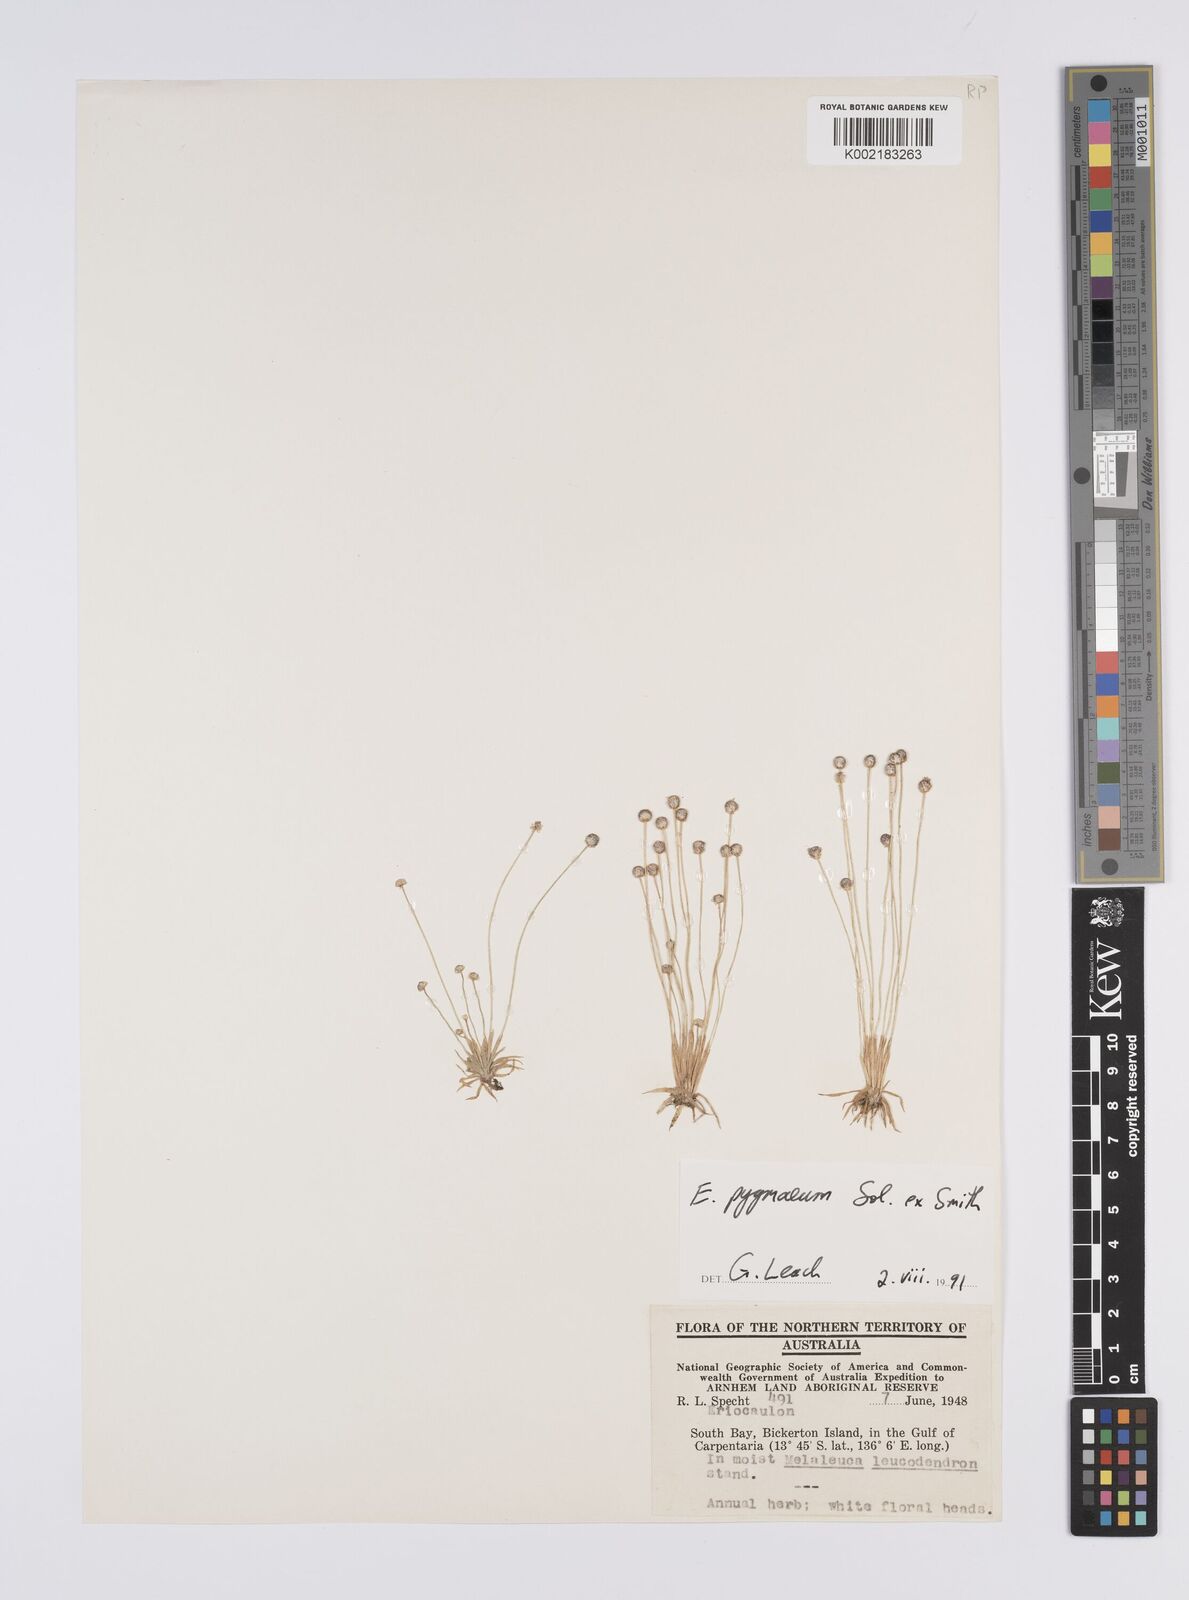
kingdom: Plantae
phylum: Tracheophyta
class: Liliopsida
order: Poales
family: Eriocaulaceae
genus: Paepalanthus
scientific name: Paepalanthus bifidus
